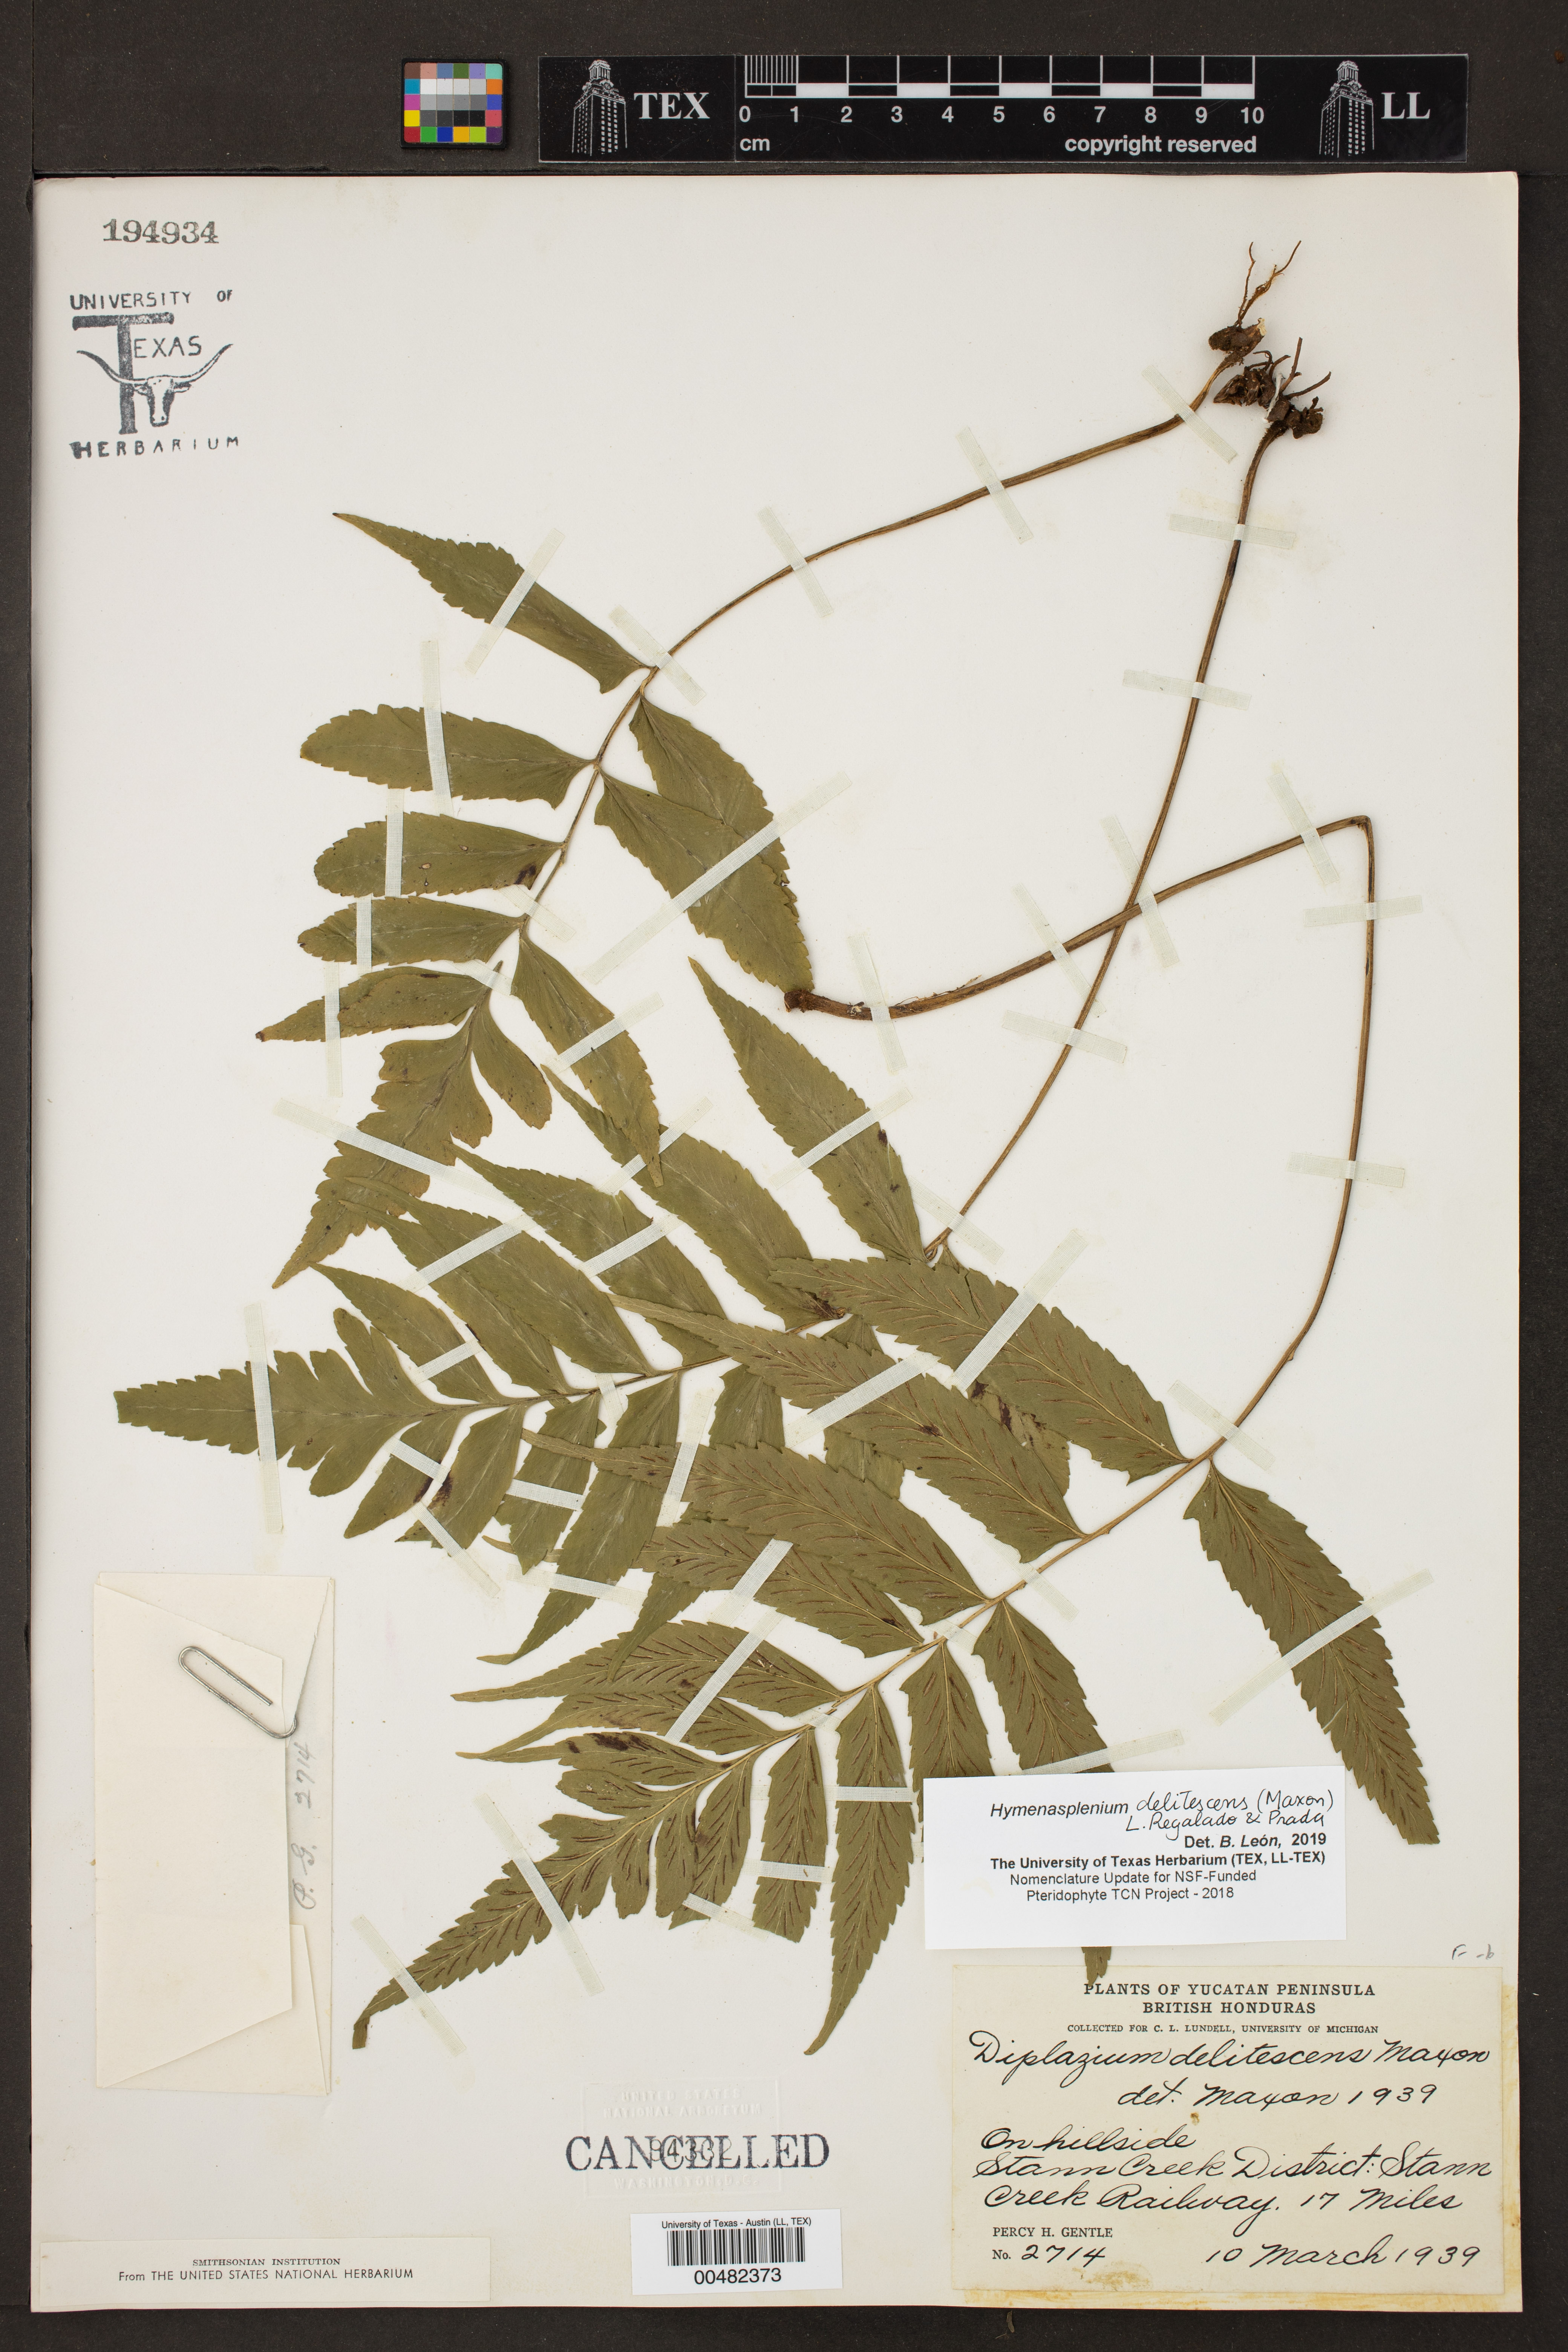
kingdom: Plantae
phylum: Tracheophyta
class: Polypodiopsida
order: Polypodiales
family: Aspleniaceae
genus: Hymenasplenium
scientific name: Hymenasplenium delitescens
